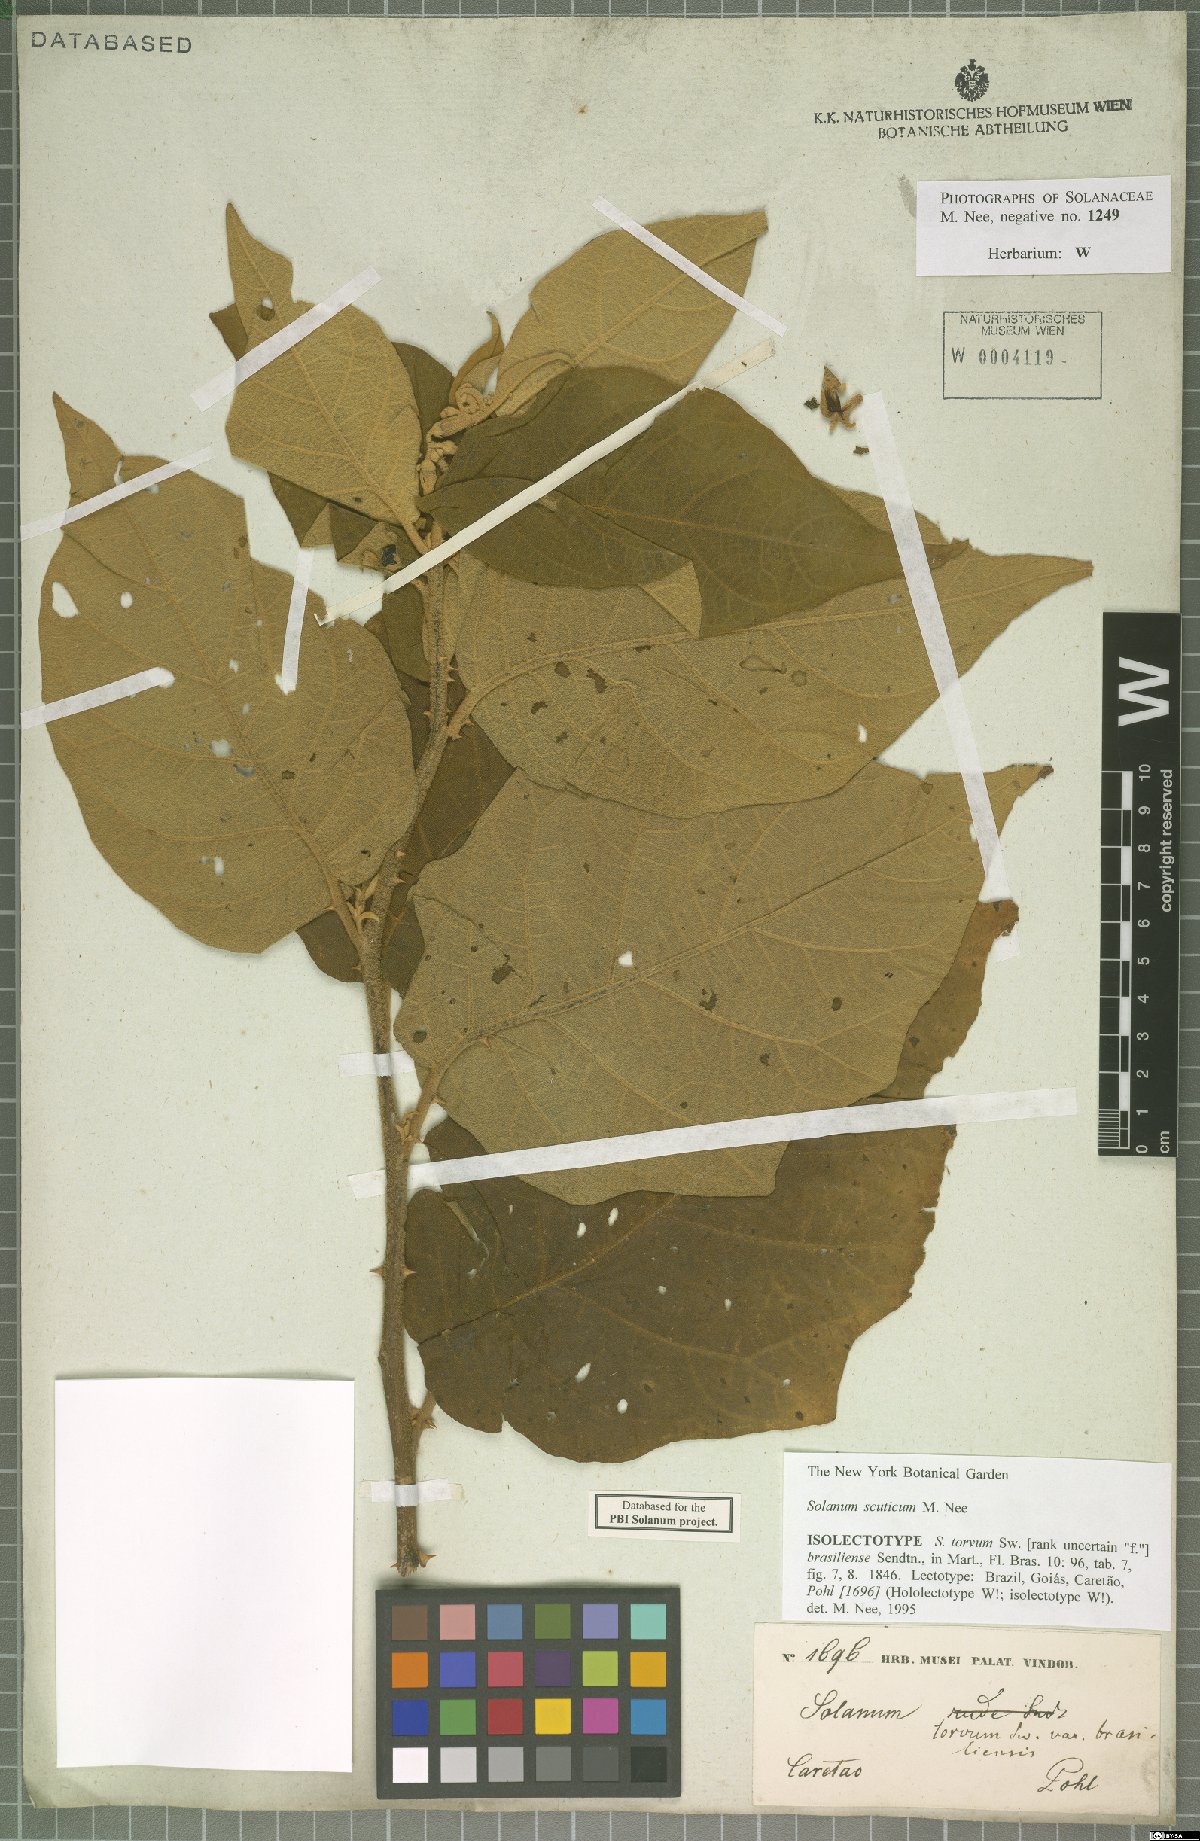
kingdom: Plantae
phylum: Tracheophyta
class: Magnoliopsida
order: Solanales
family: Solanaceae
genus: Solanum
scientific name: Solanum scuticum
